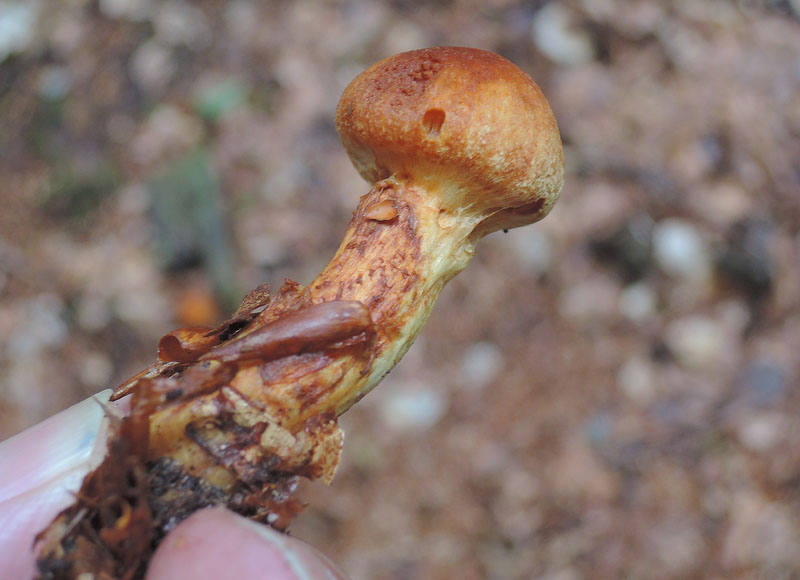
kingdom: Fungi
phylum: Basidiomycota
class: Agaricomycetes
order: Agaricales
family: Cortinariaceae
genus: Aureonarius
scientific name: Aureonarius limonius
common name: orangegul slørhat
